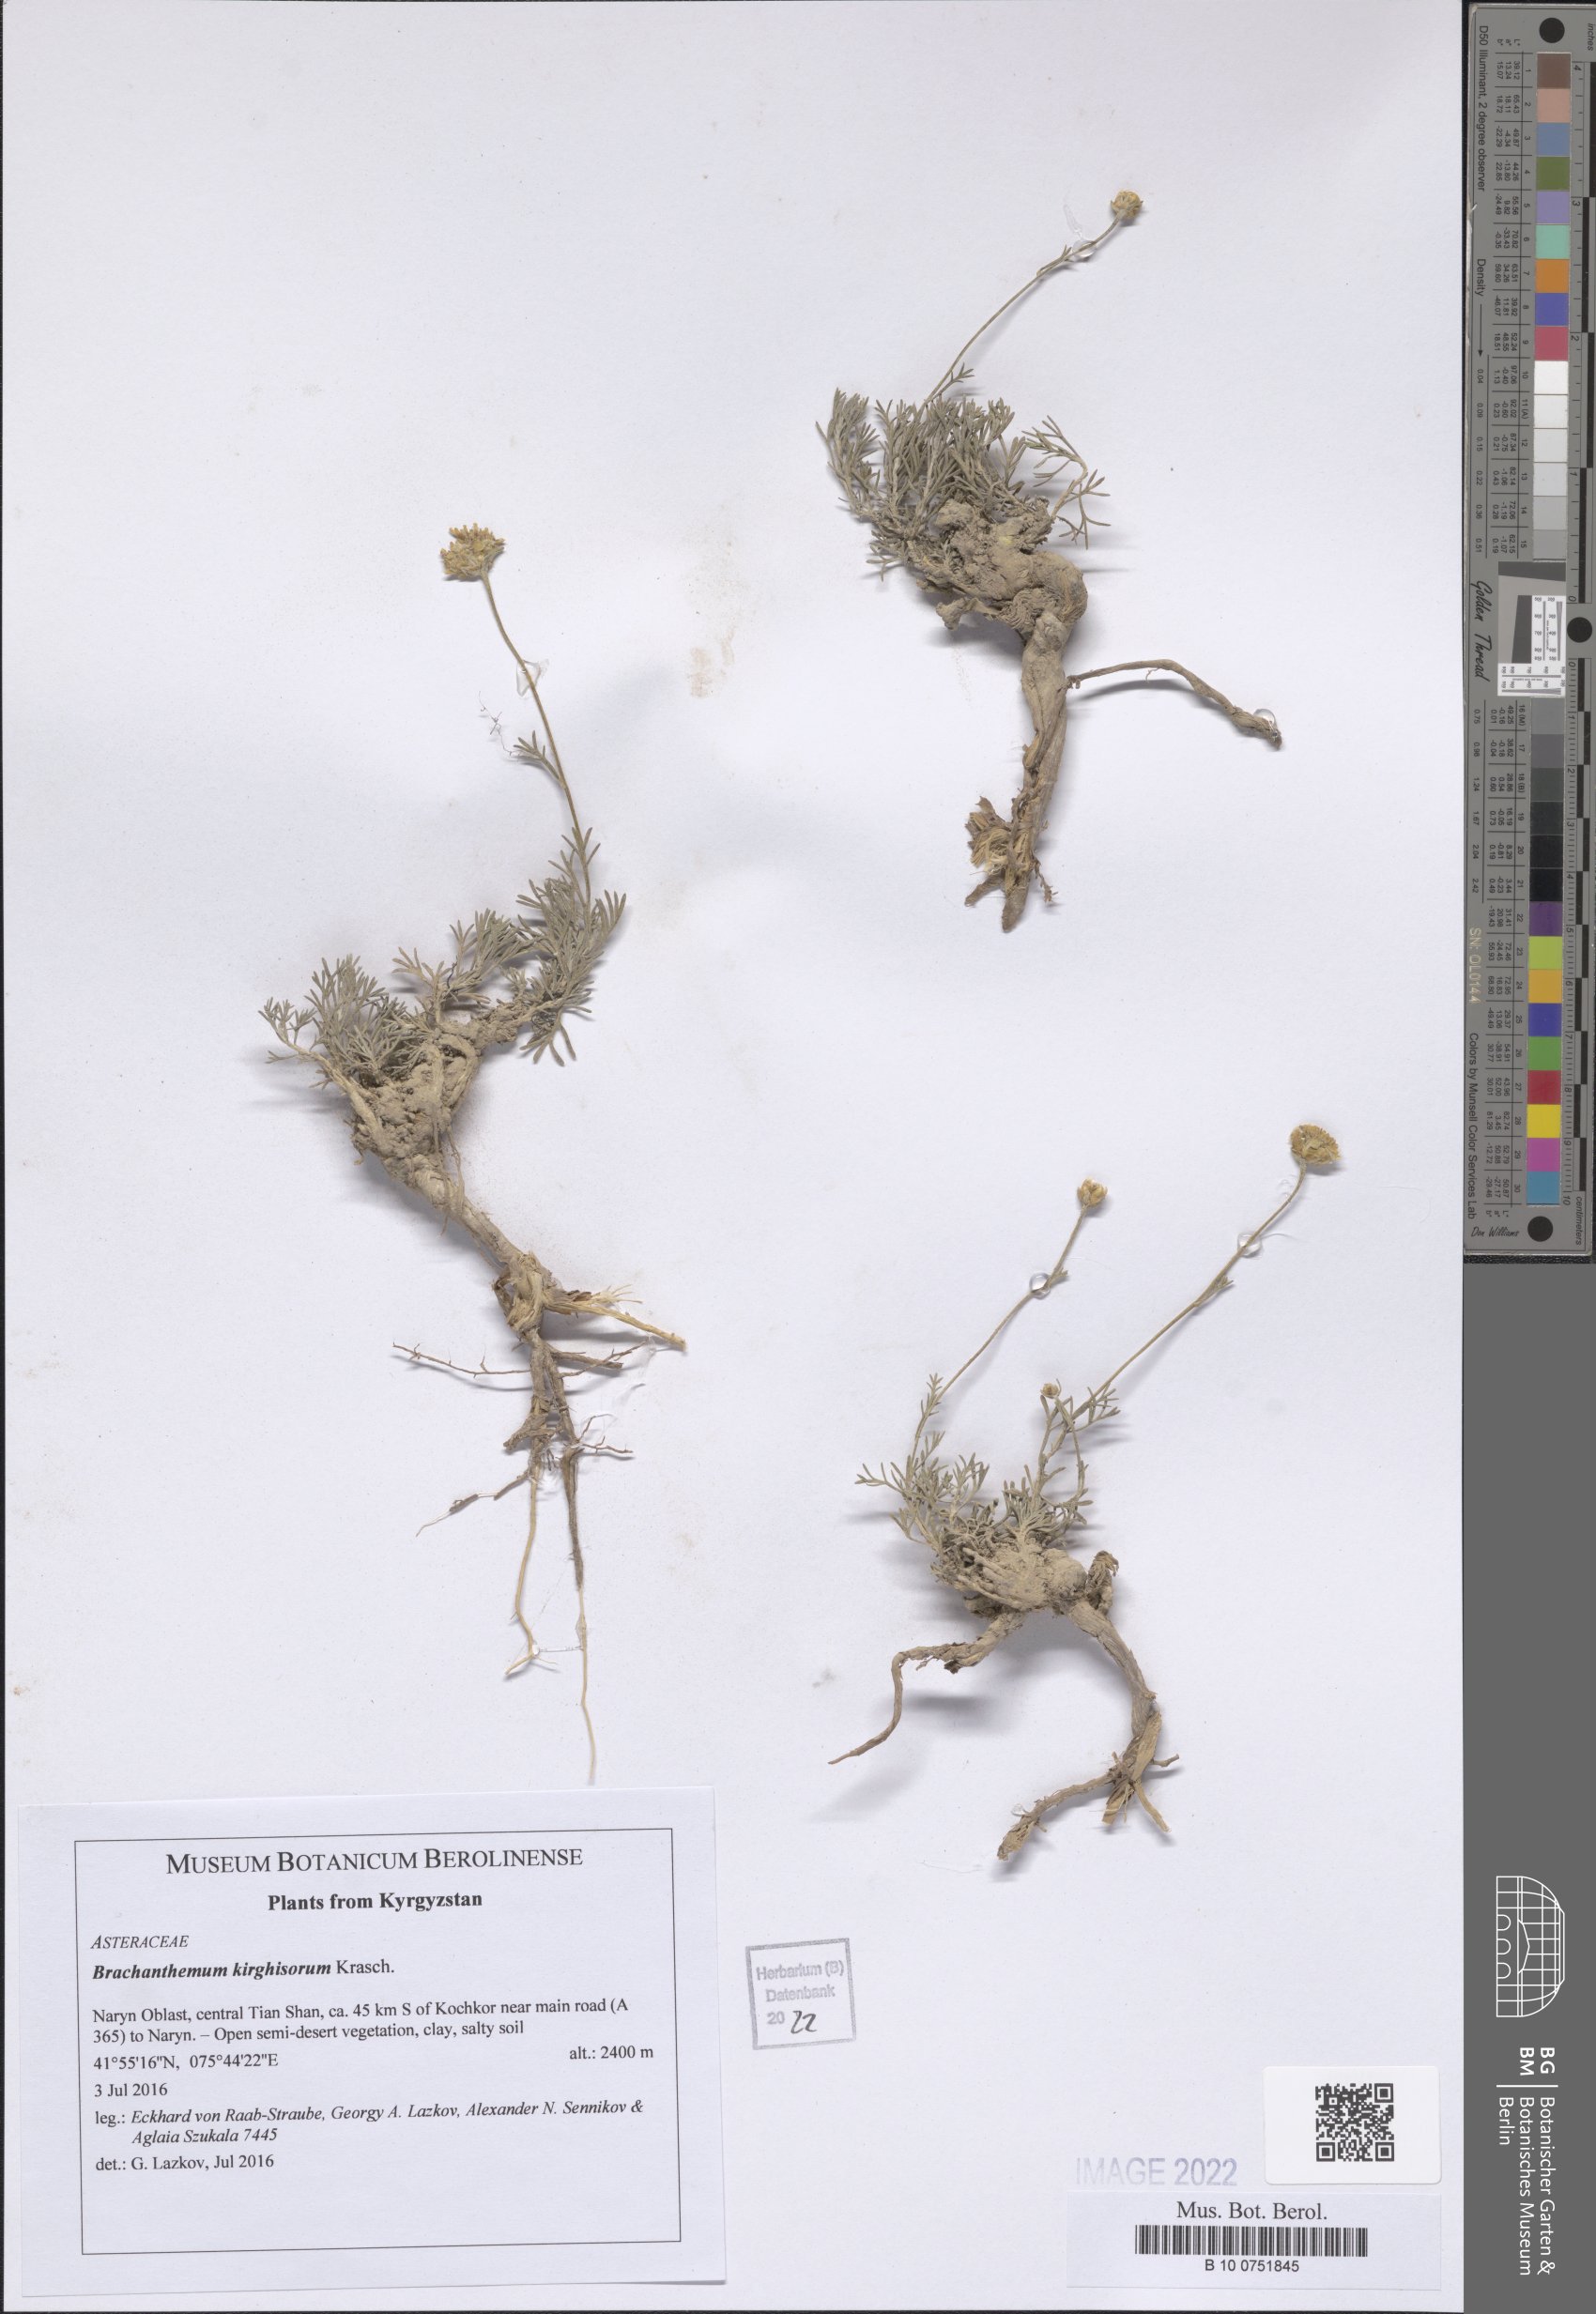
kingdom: Plantae
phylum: Tracheophyta
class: Magnoliopsida
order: Asterales
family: Asteraceae
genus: Brachanthemum
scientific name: Brachanthemum kirghisorum
